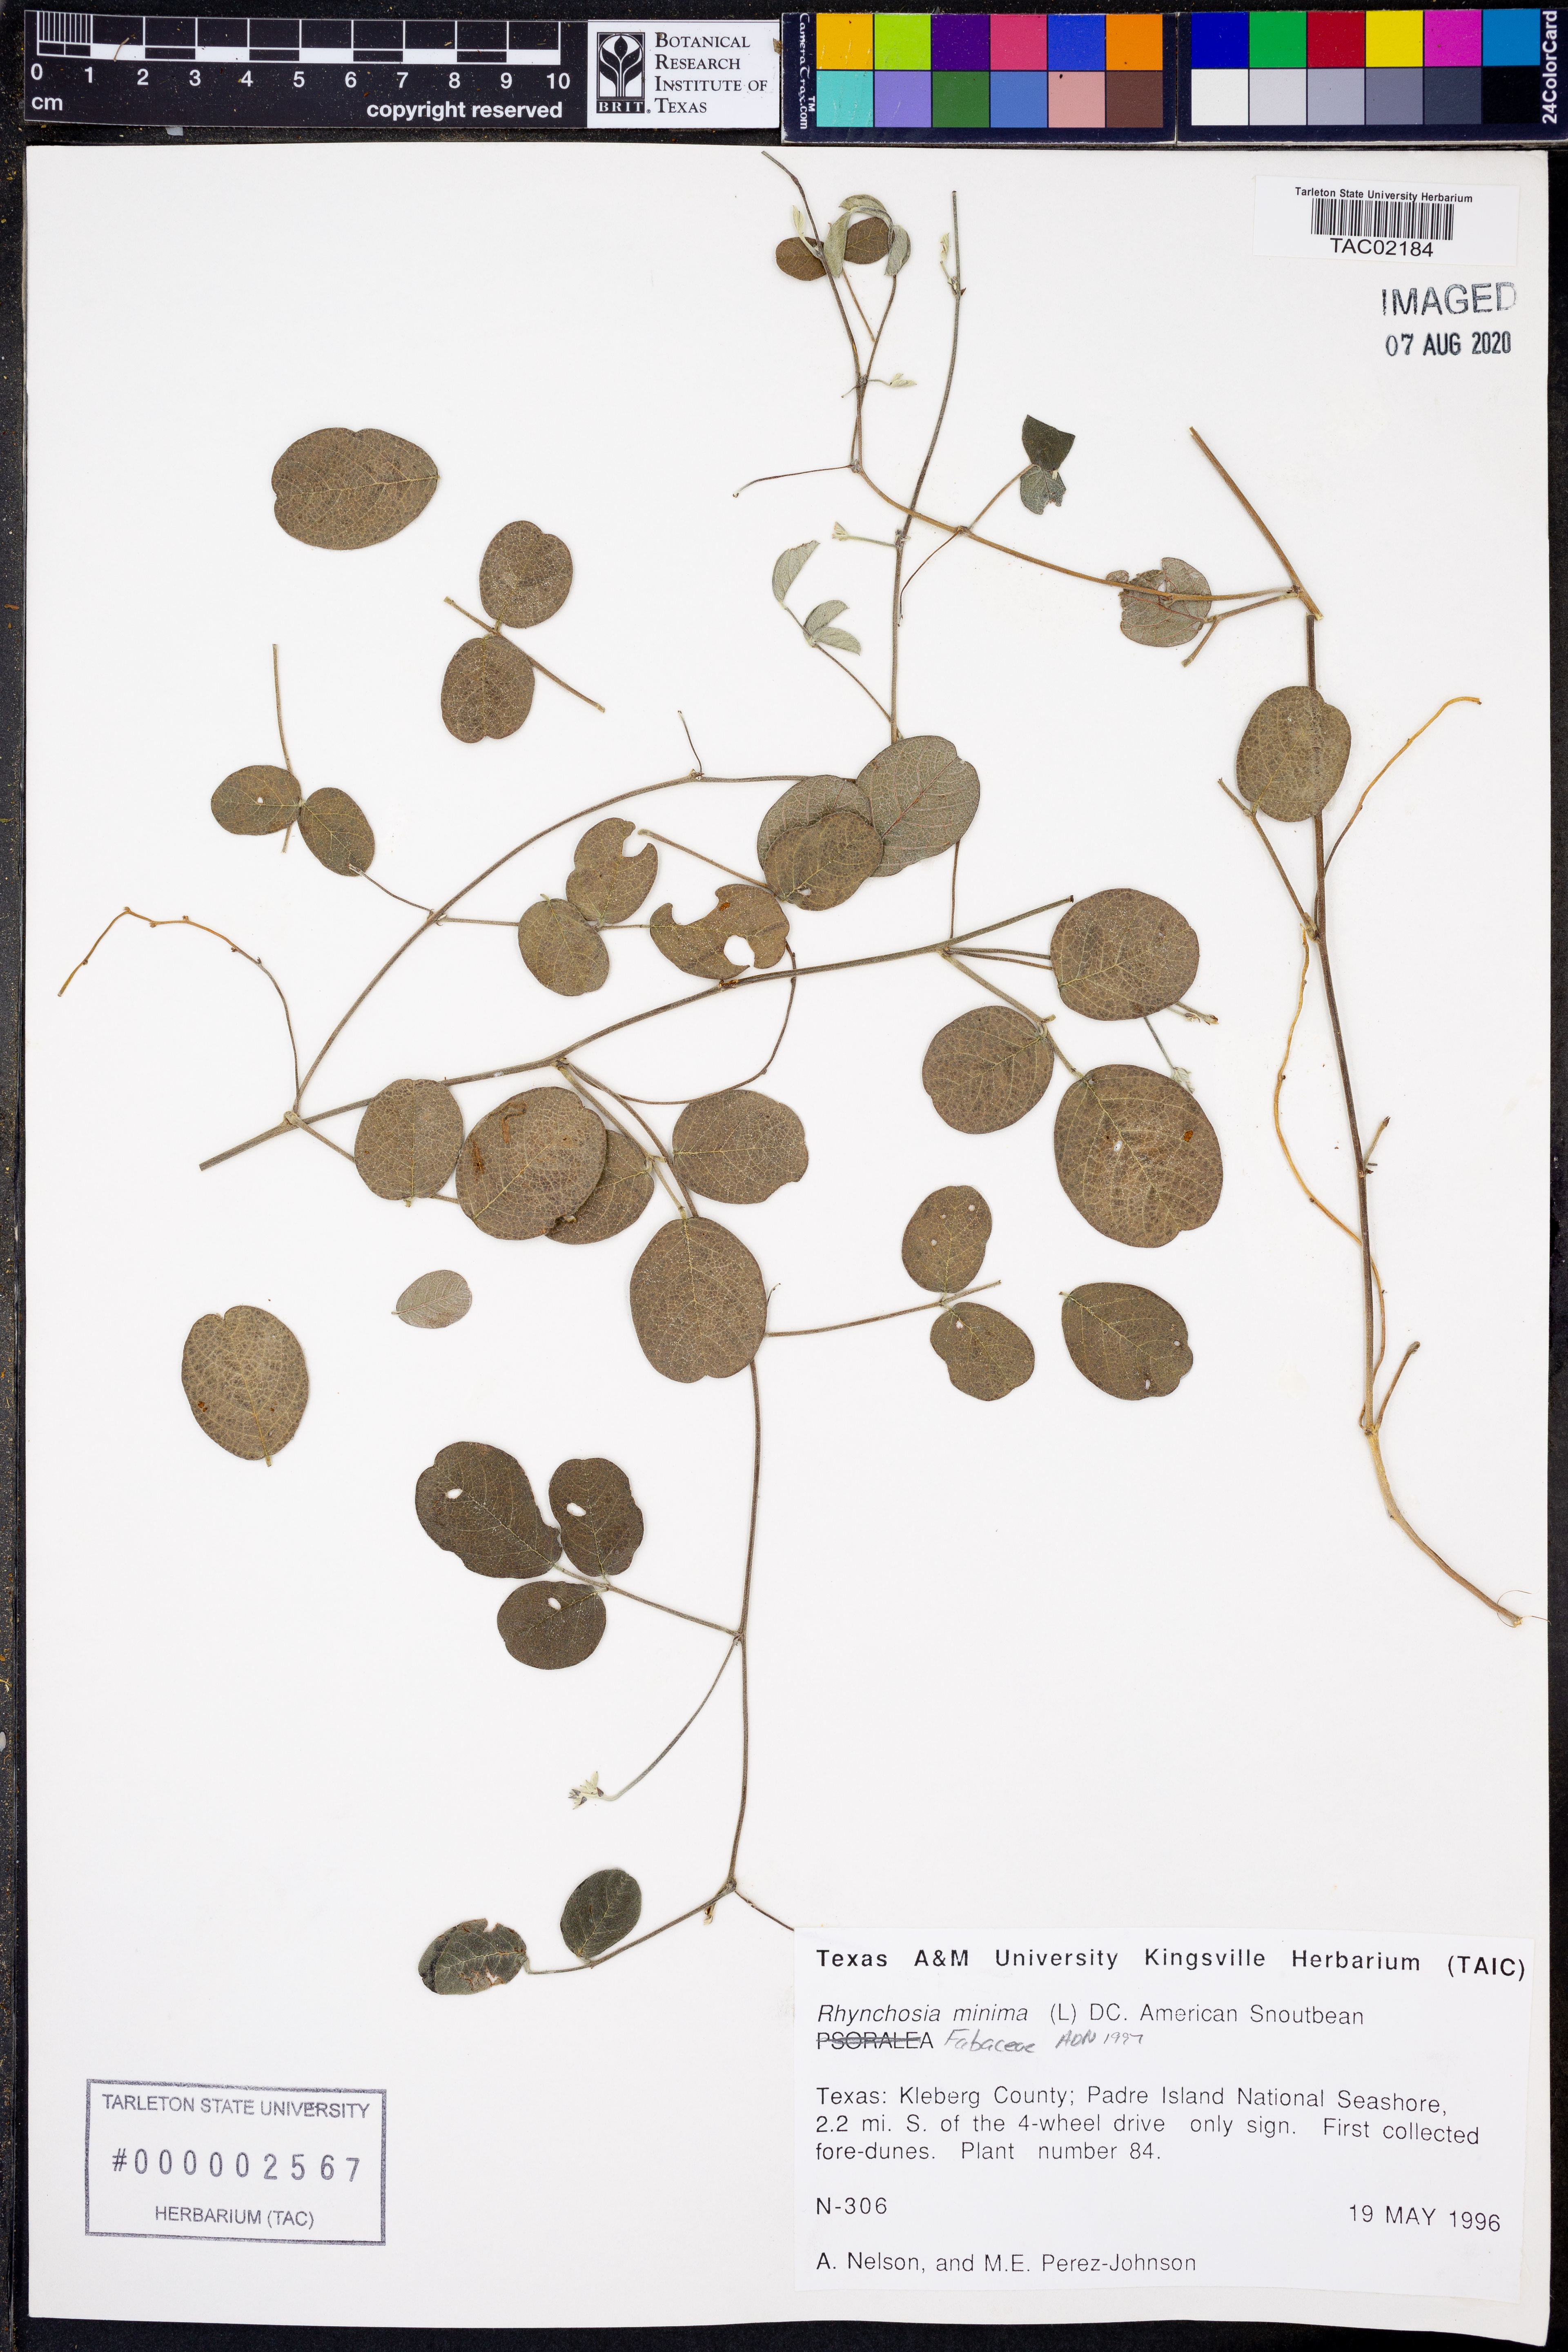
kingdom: Plantae
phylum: Tracheophyta
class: Magnoliopsida
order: Fabales
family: Fabaceae
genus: Rhynchosia
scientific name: Rhynchosia minima
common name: Least snoutbean
